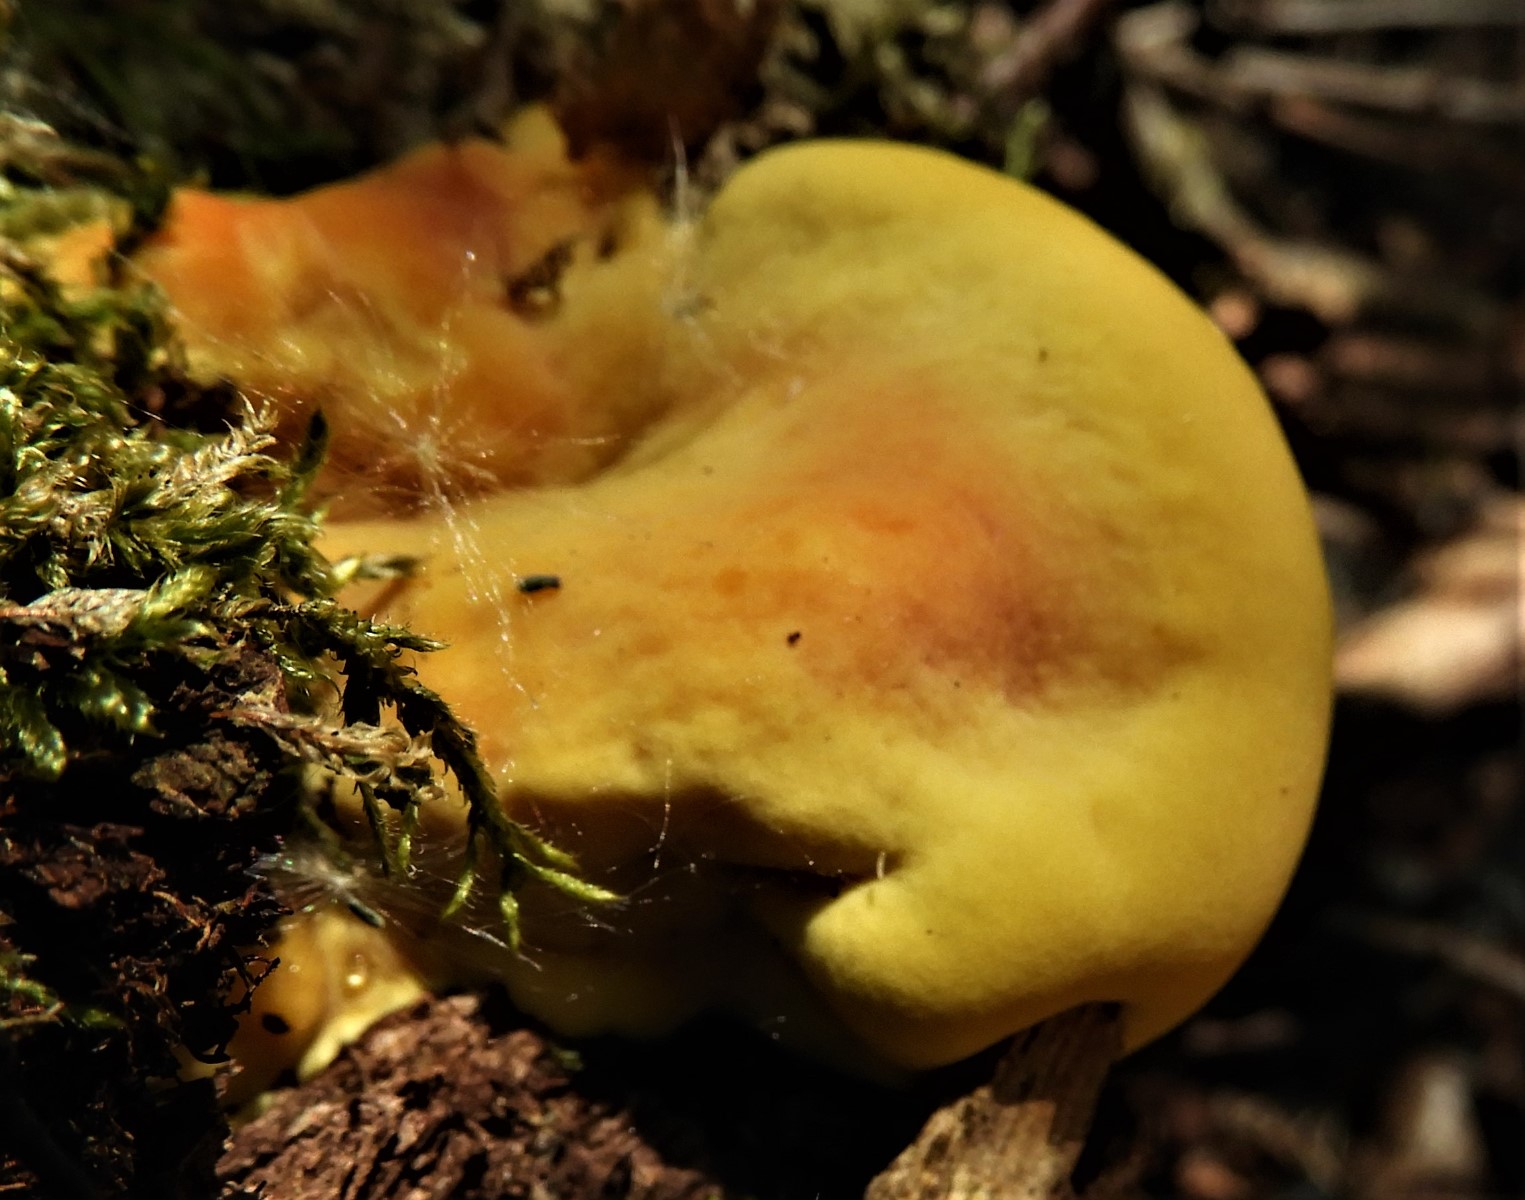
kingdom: Fungi
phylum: Basidiomycota
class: Agaricomycetes
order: Polyporales
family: Laetiporaceae
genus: Laetiporus
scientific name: Laetiporus sulphureus
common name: svovlporesvamp
